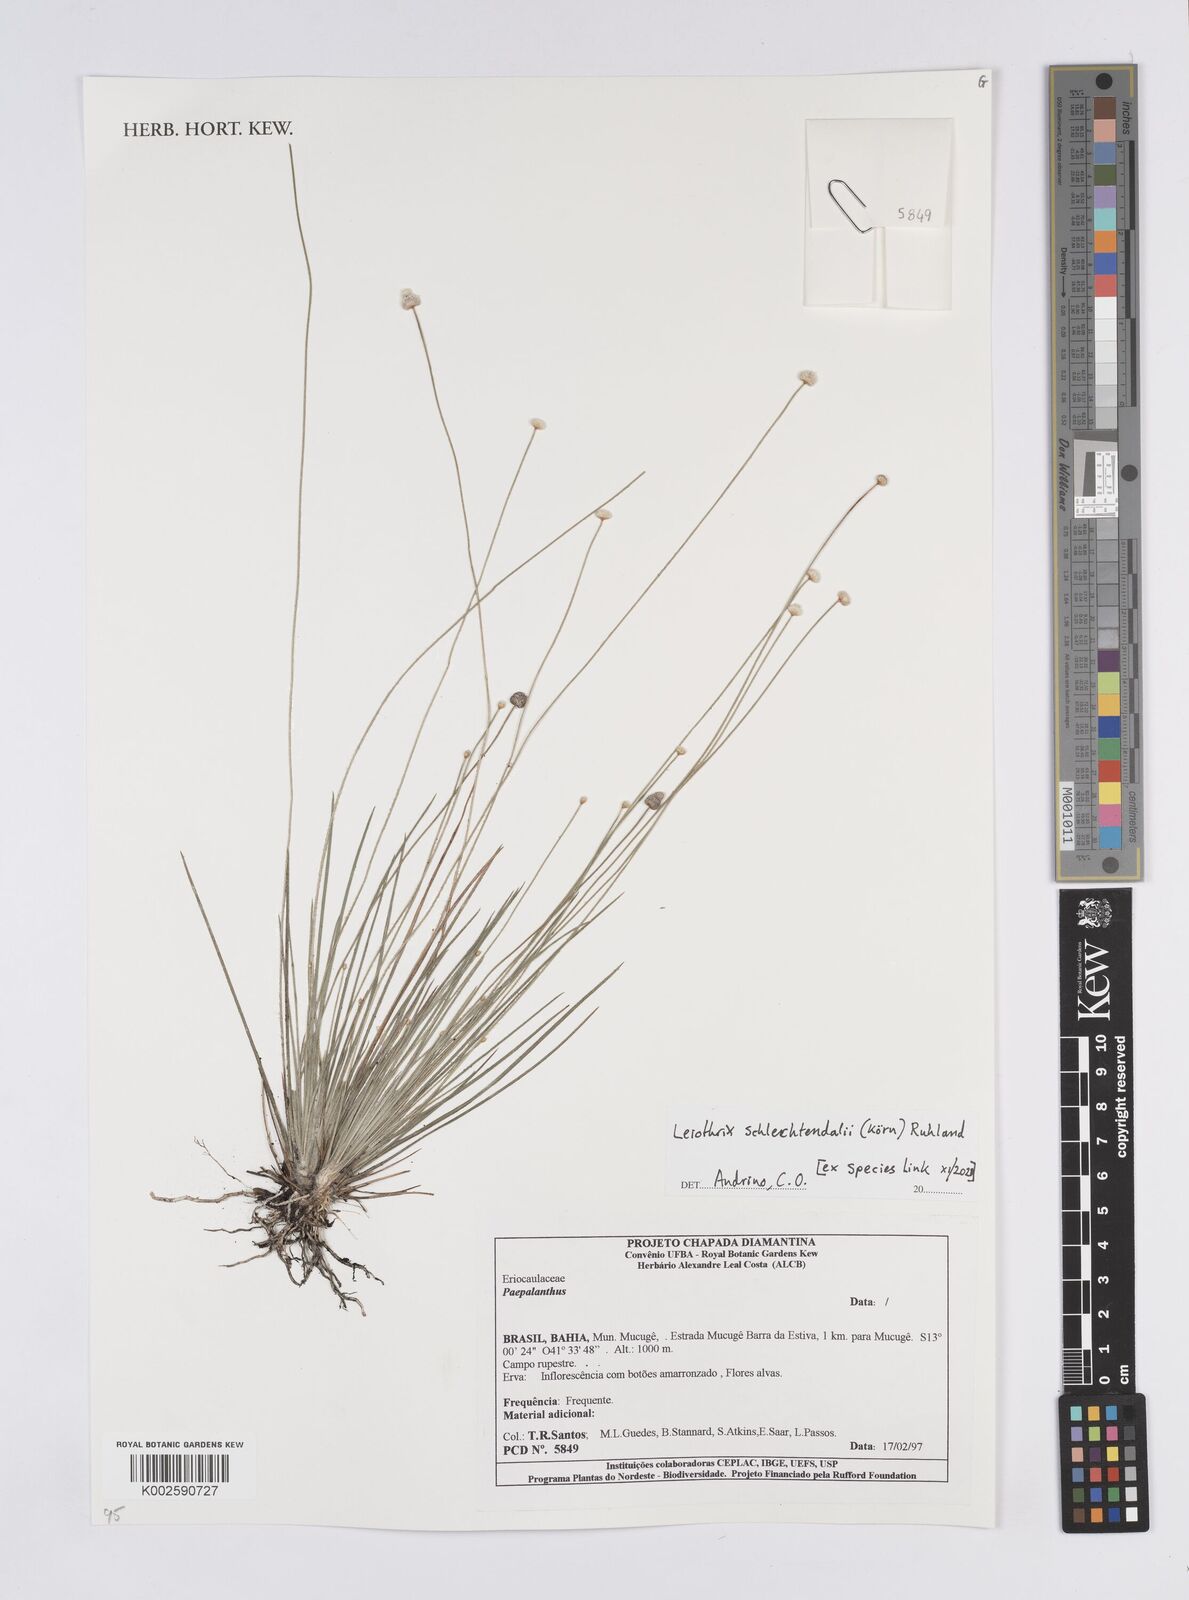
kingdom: Plantae
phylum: Tracheophyta
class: Liliopsida
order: Poales
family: Eriocaulaceae
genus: Leiothrix
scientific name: Leiothrix schlechtendalii
